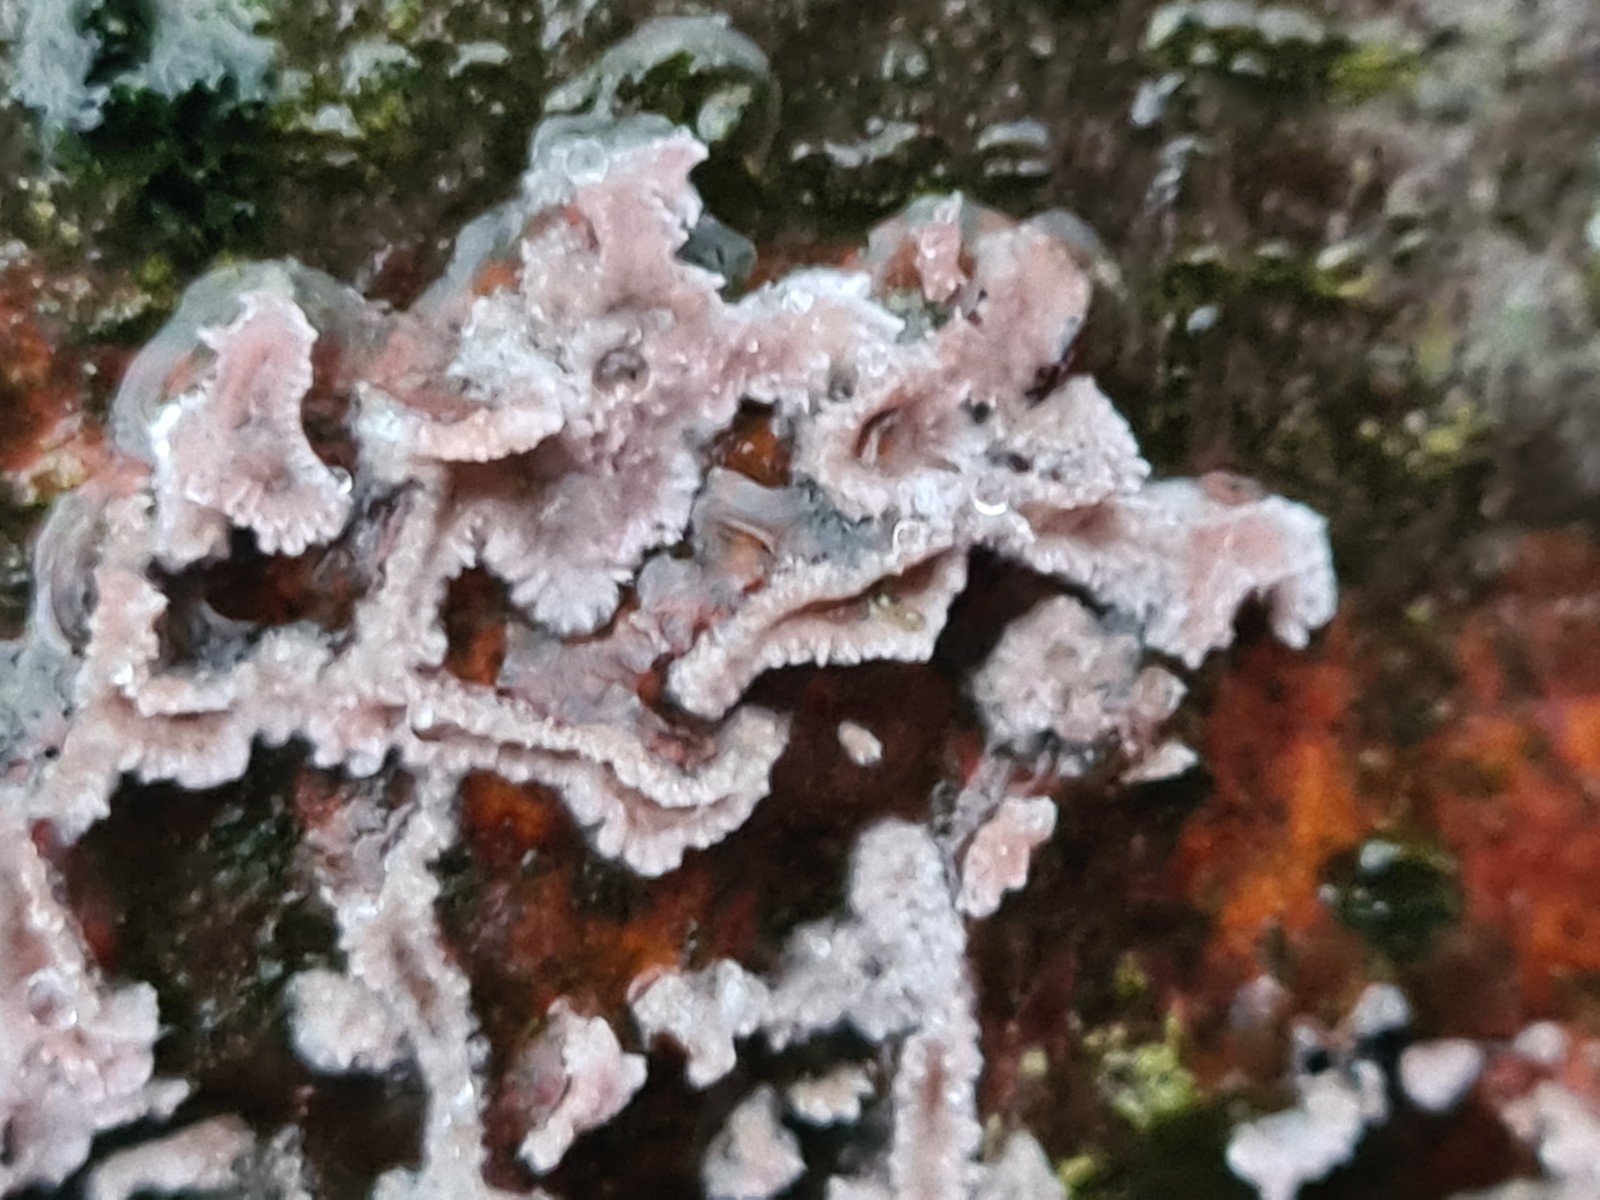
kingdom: Fungi
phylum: Basidiomycota
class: Agaricomycetes
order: Agaricales
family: Cyphellaceae
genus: Chondrostereum
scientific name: Chondrostereum purpureum
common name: purpurlædersvamp
